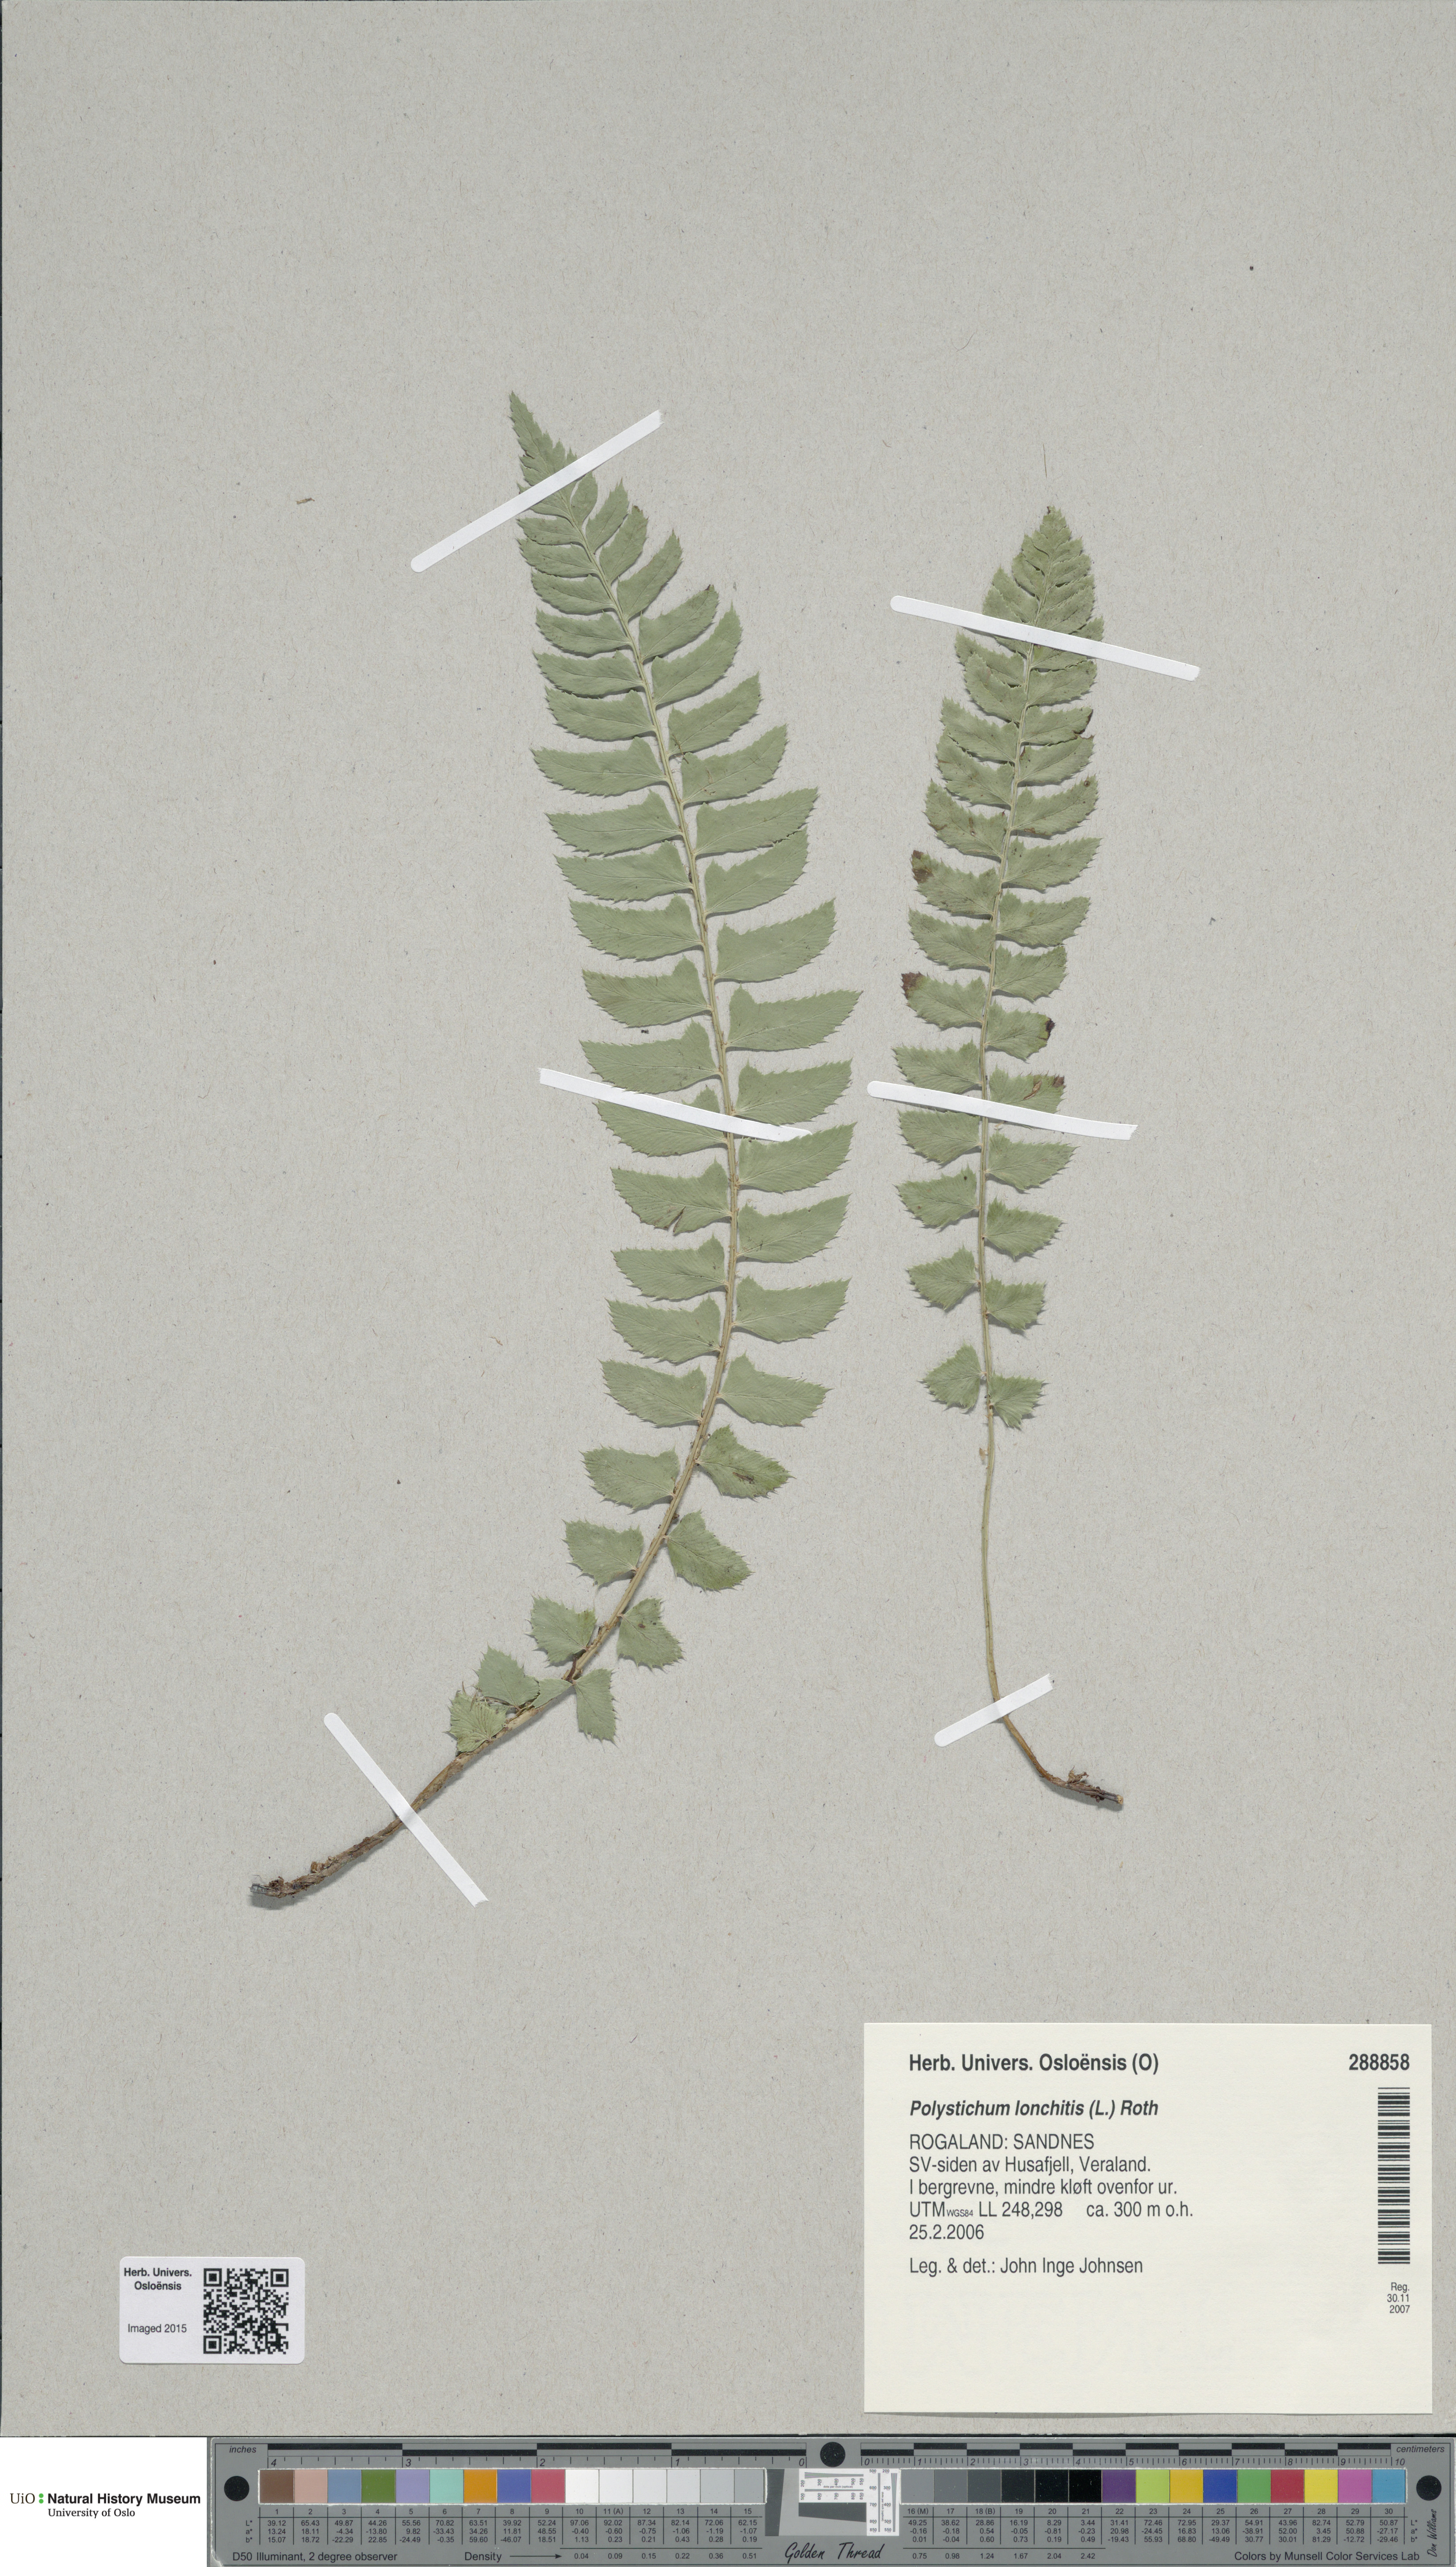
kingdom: Plantae
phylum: Tracheophyta
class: Polypodiopsida
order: Polypodiales
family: Dryopteridaceae
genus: Polystichum
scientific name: Polystichum lonchitis
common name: Holly fern
